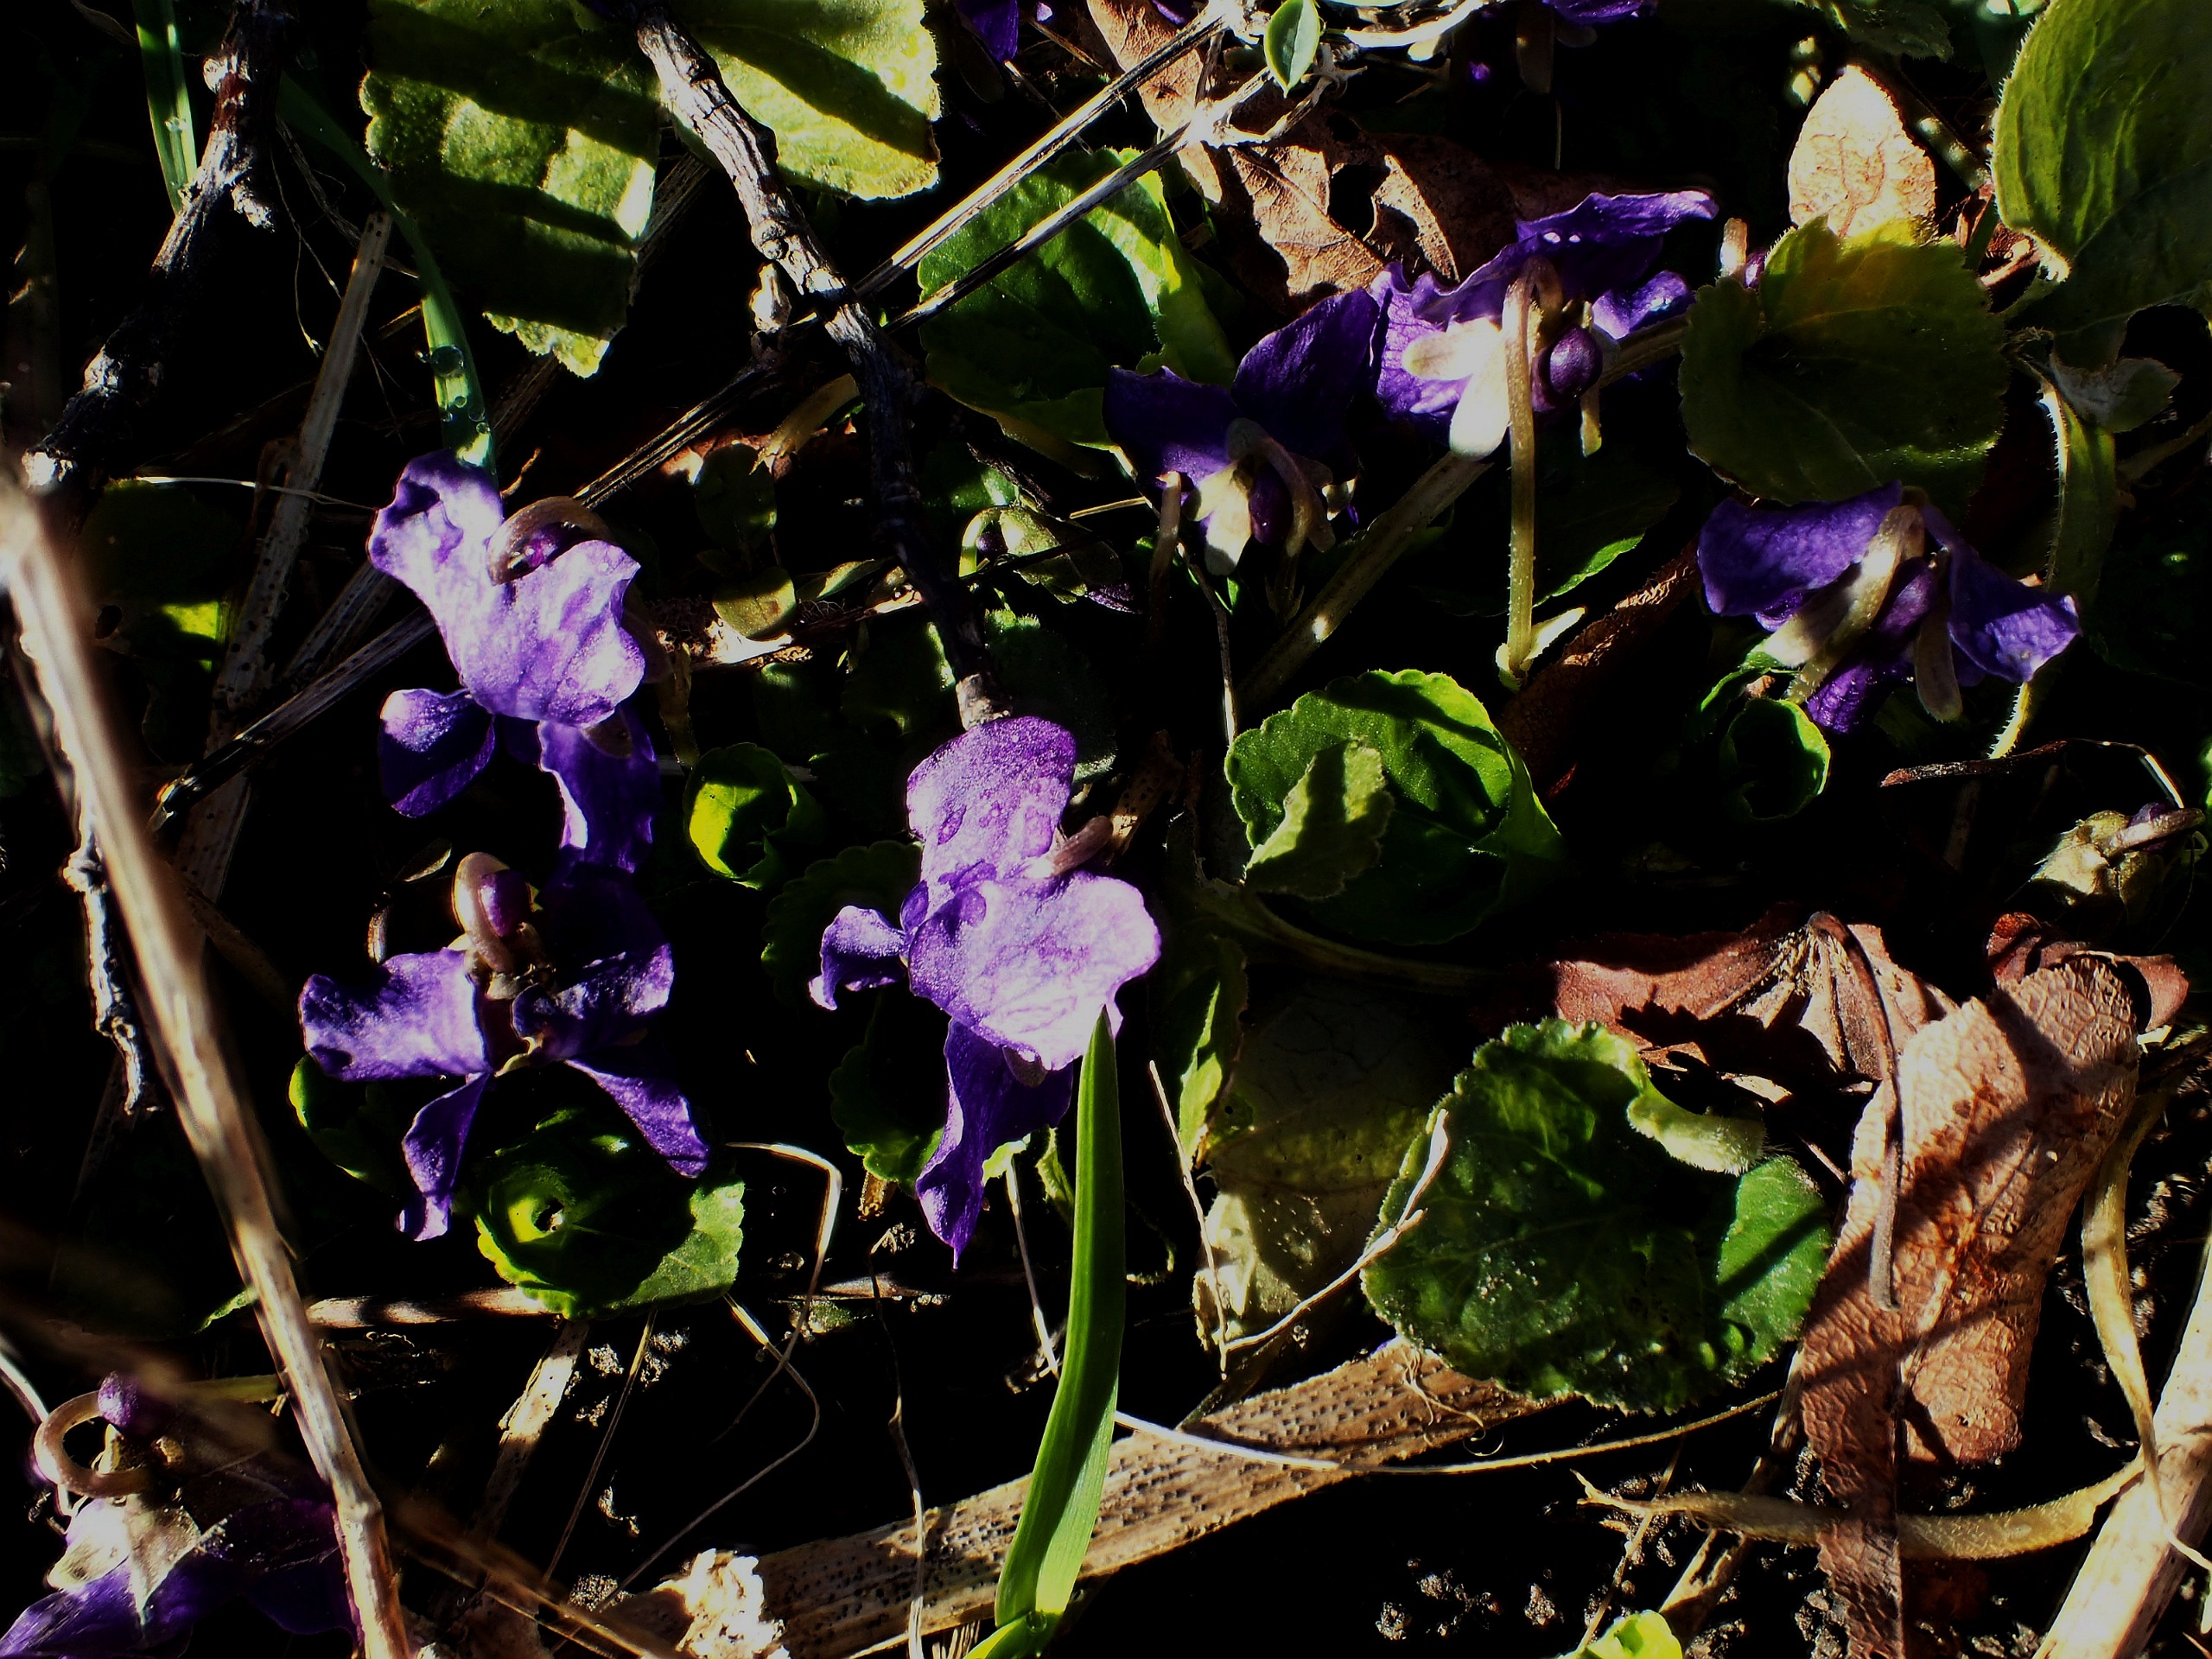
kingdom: Plantae
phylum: Tracheophyta
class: Magnoliopsida
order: Malpighiales
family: Violaceae
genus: Viola
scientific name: Viola odorata
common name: Marts-viol
